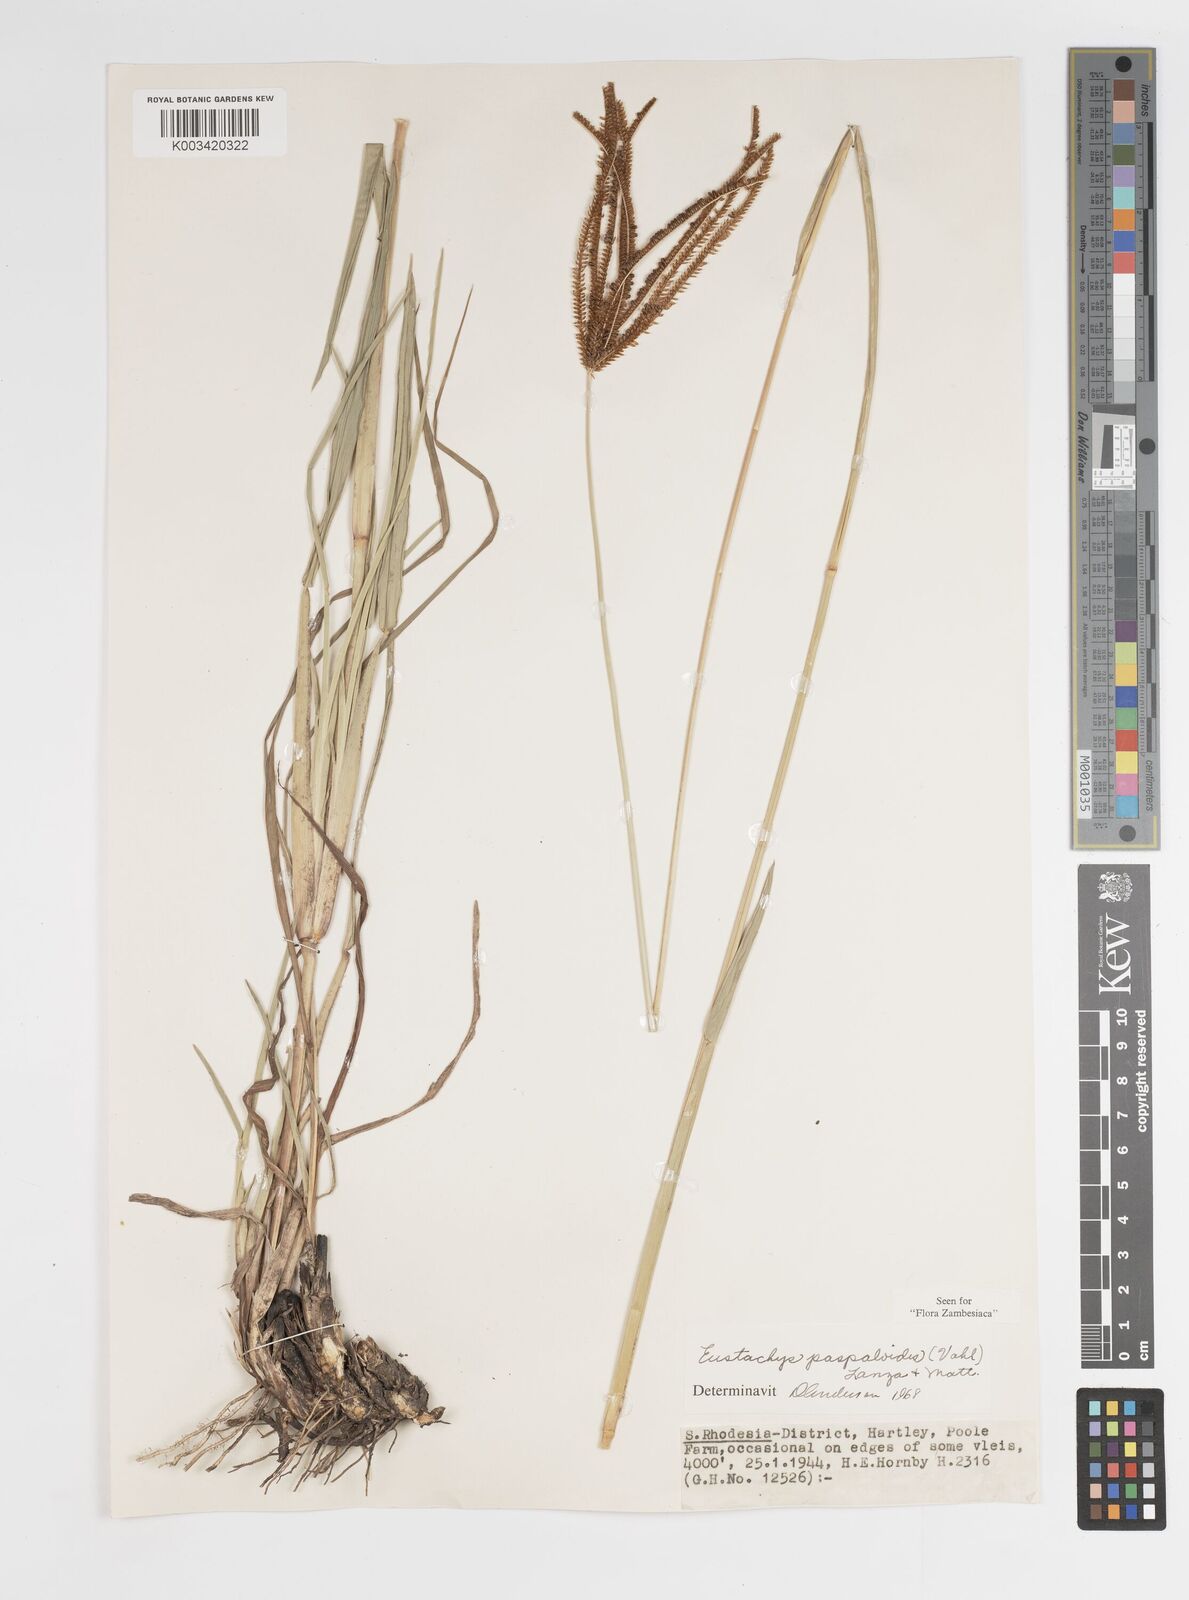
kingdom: Plantae
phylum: Tracheophyta
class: Liliopsida
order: Poales
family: Poaceae
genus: Eustachys
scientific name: Eustachys paspaloides
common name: Caribbean fingergrass
